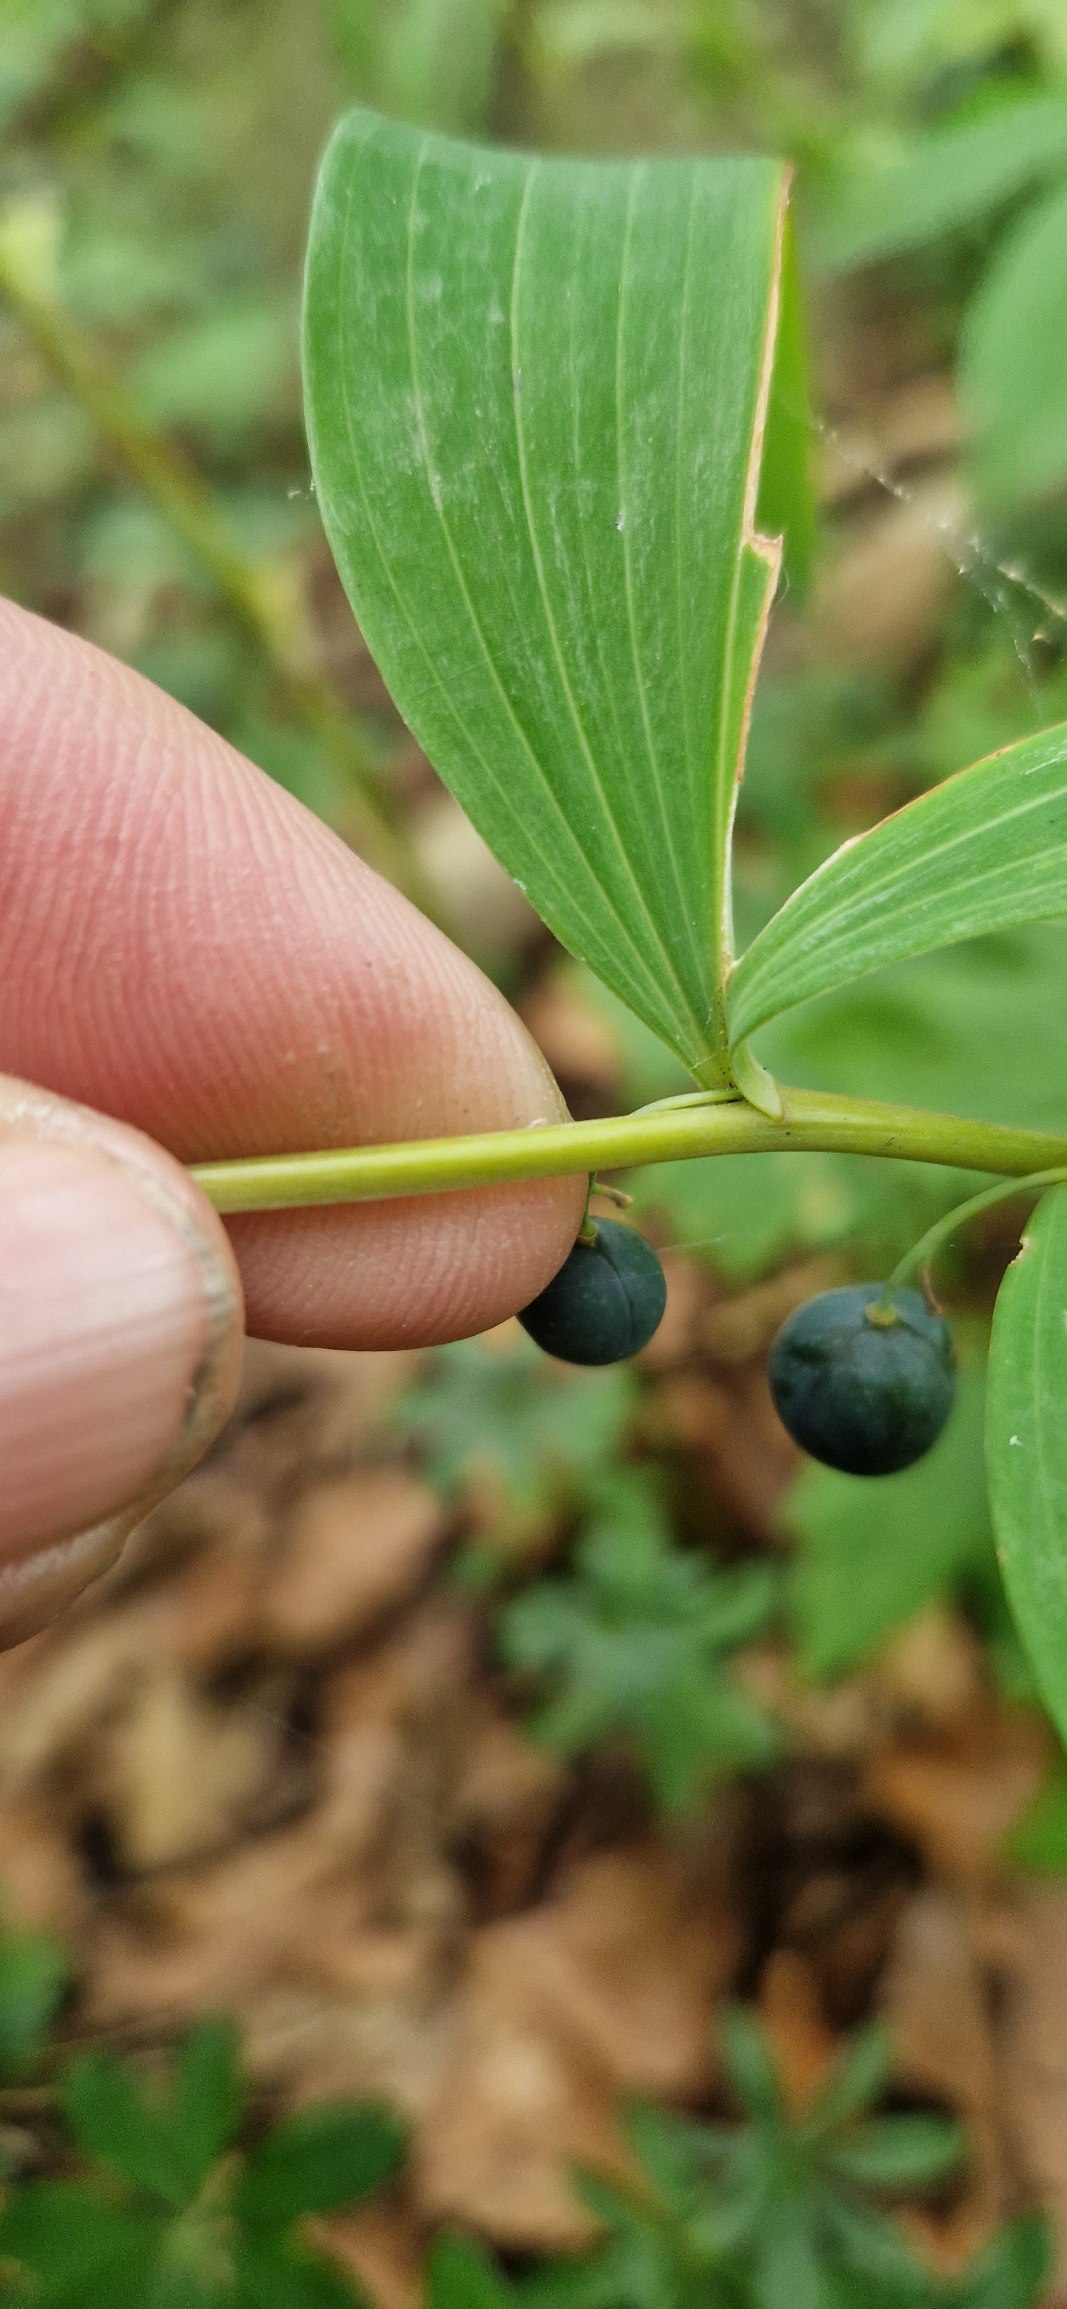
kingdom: Plantae
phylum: Tracheophyta
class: Liliopsida
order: Asparagales
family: Asparagaceae
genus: Polygonatum
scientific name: Polygonatum multiflorum
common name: Stor konval
